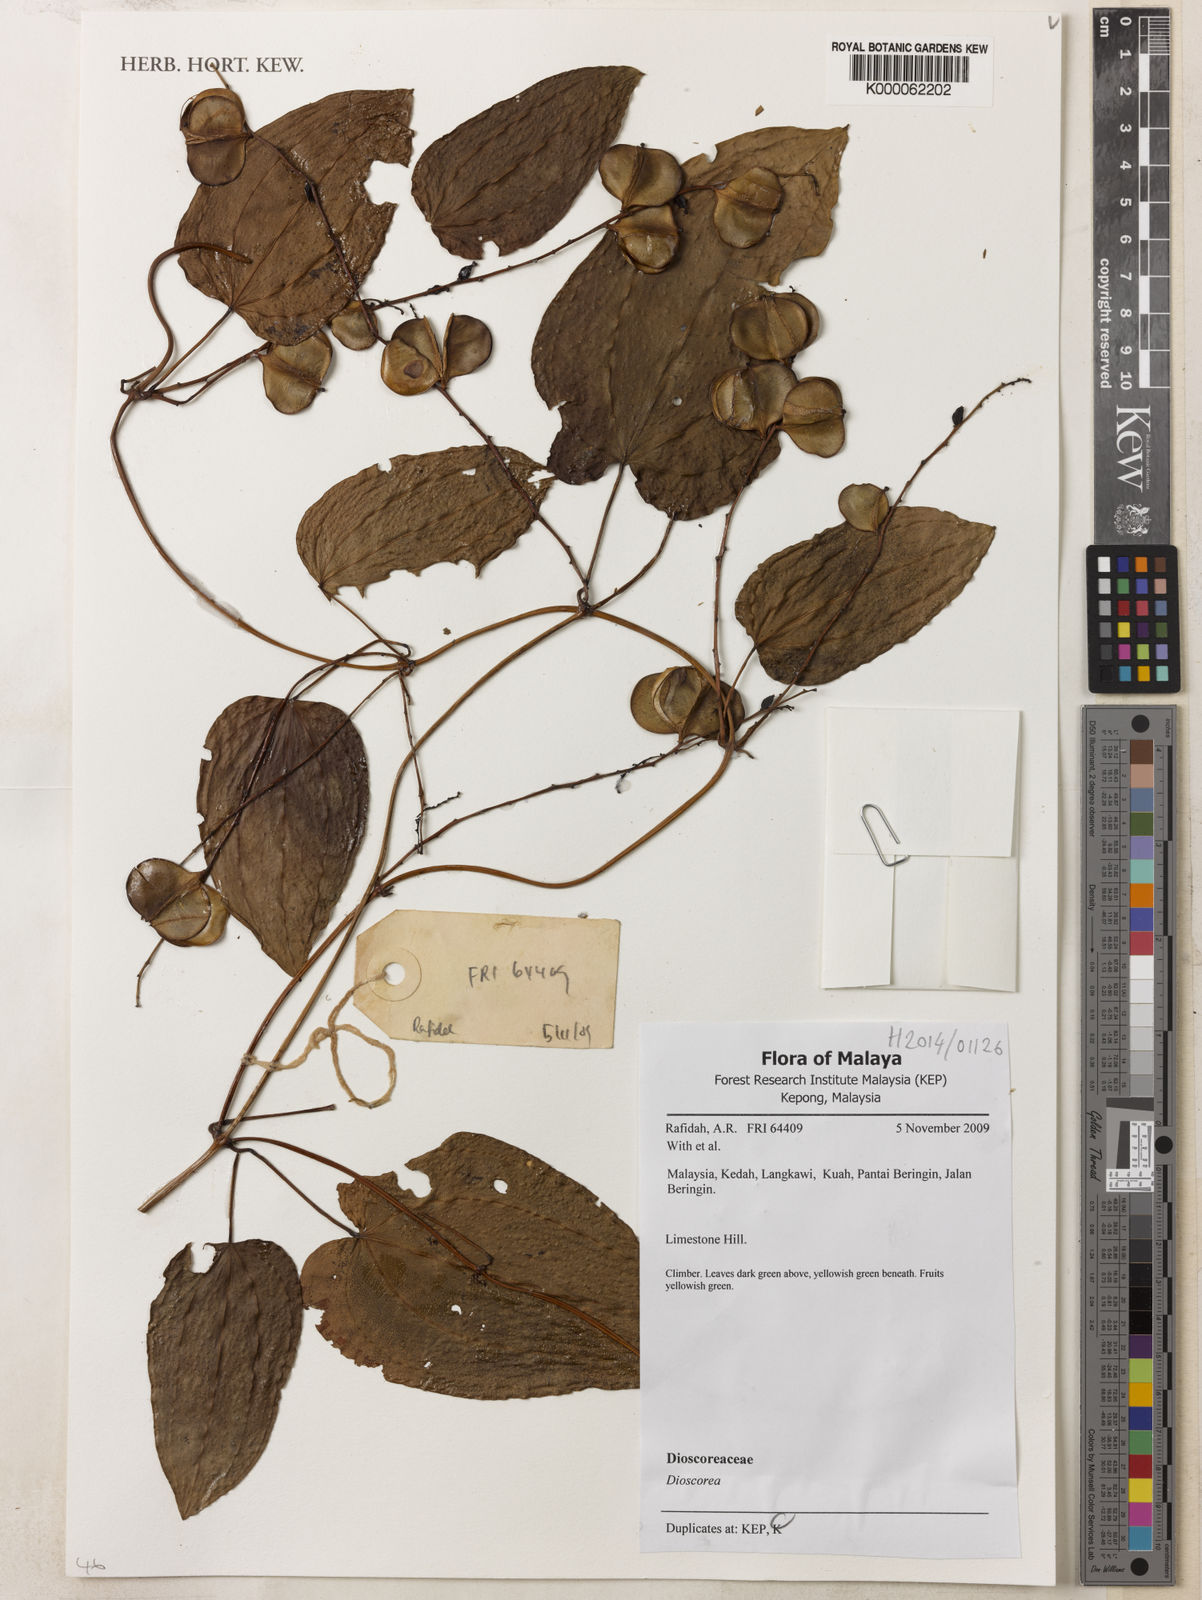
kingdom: Plantae
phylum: Tracheophyta
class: Liliopsida
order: Dioscoreales
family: Dioscoreaceae
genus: Dioscorea
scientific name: Dioscorea
